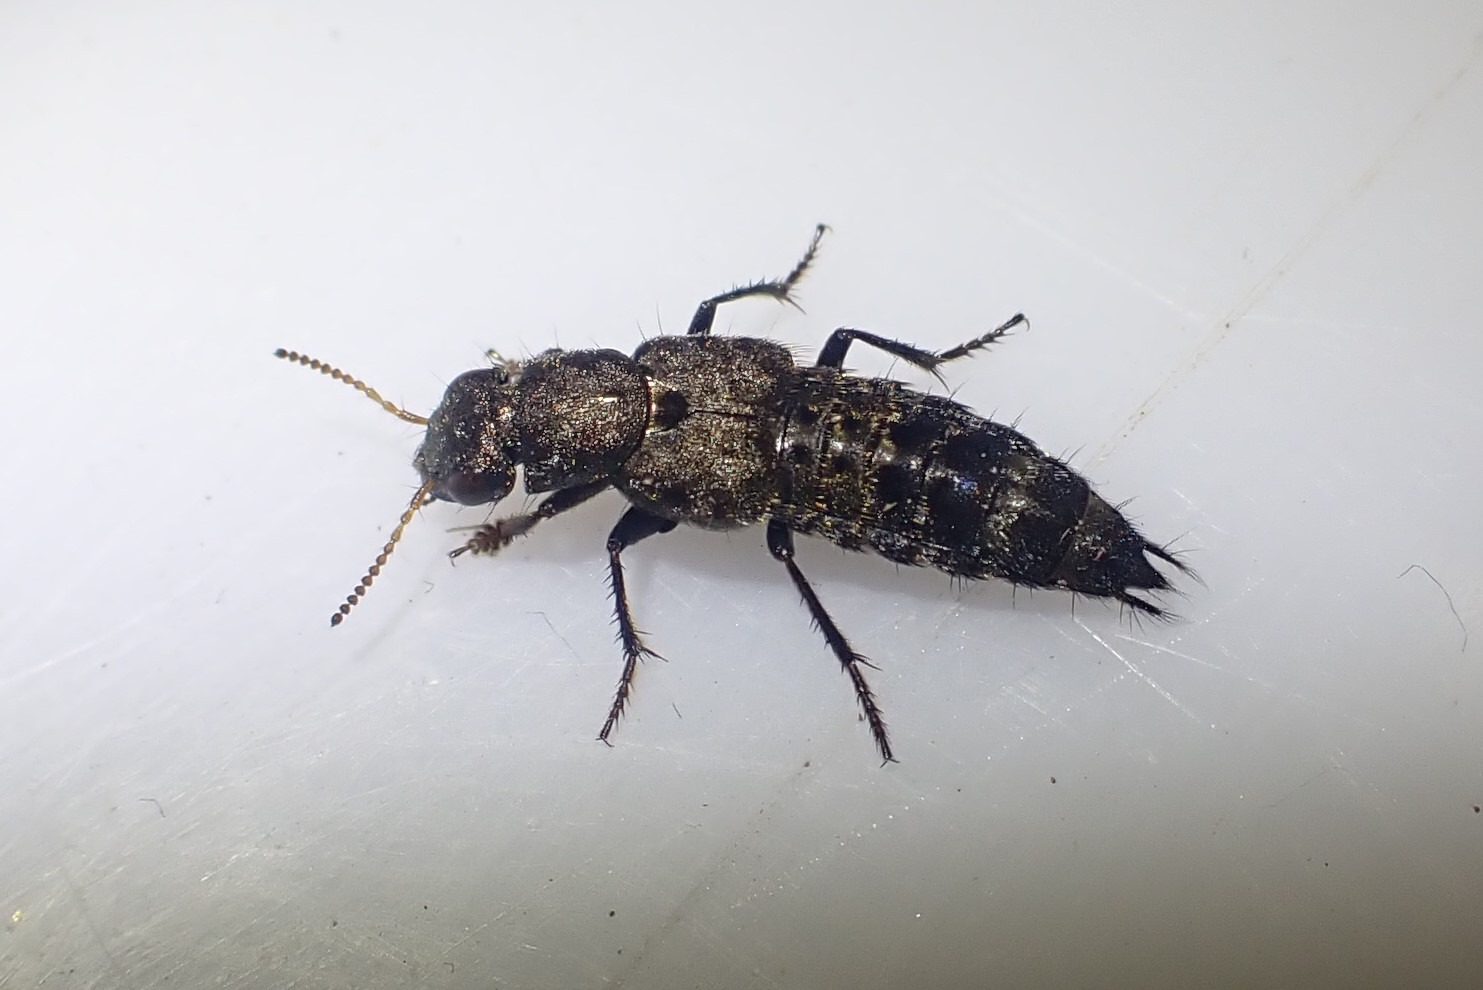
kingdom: Animalia
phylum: Arthropoda
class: Insecta
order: Coleoptera
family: Staphylinidae
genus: Ontholestes
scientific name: Ontholestes murinus
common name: Lille jagtrovbille
